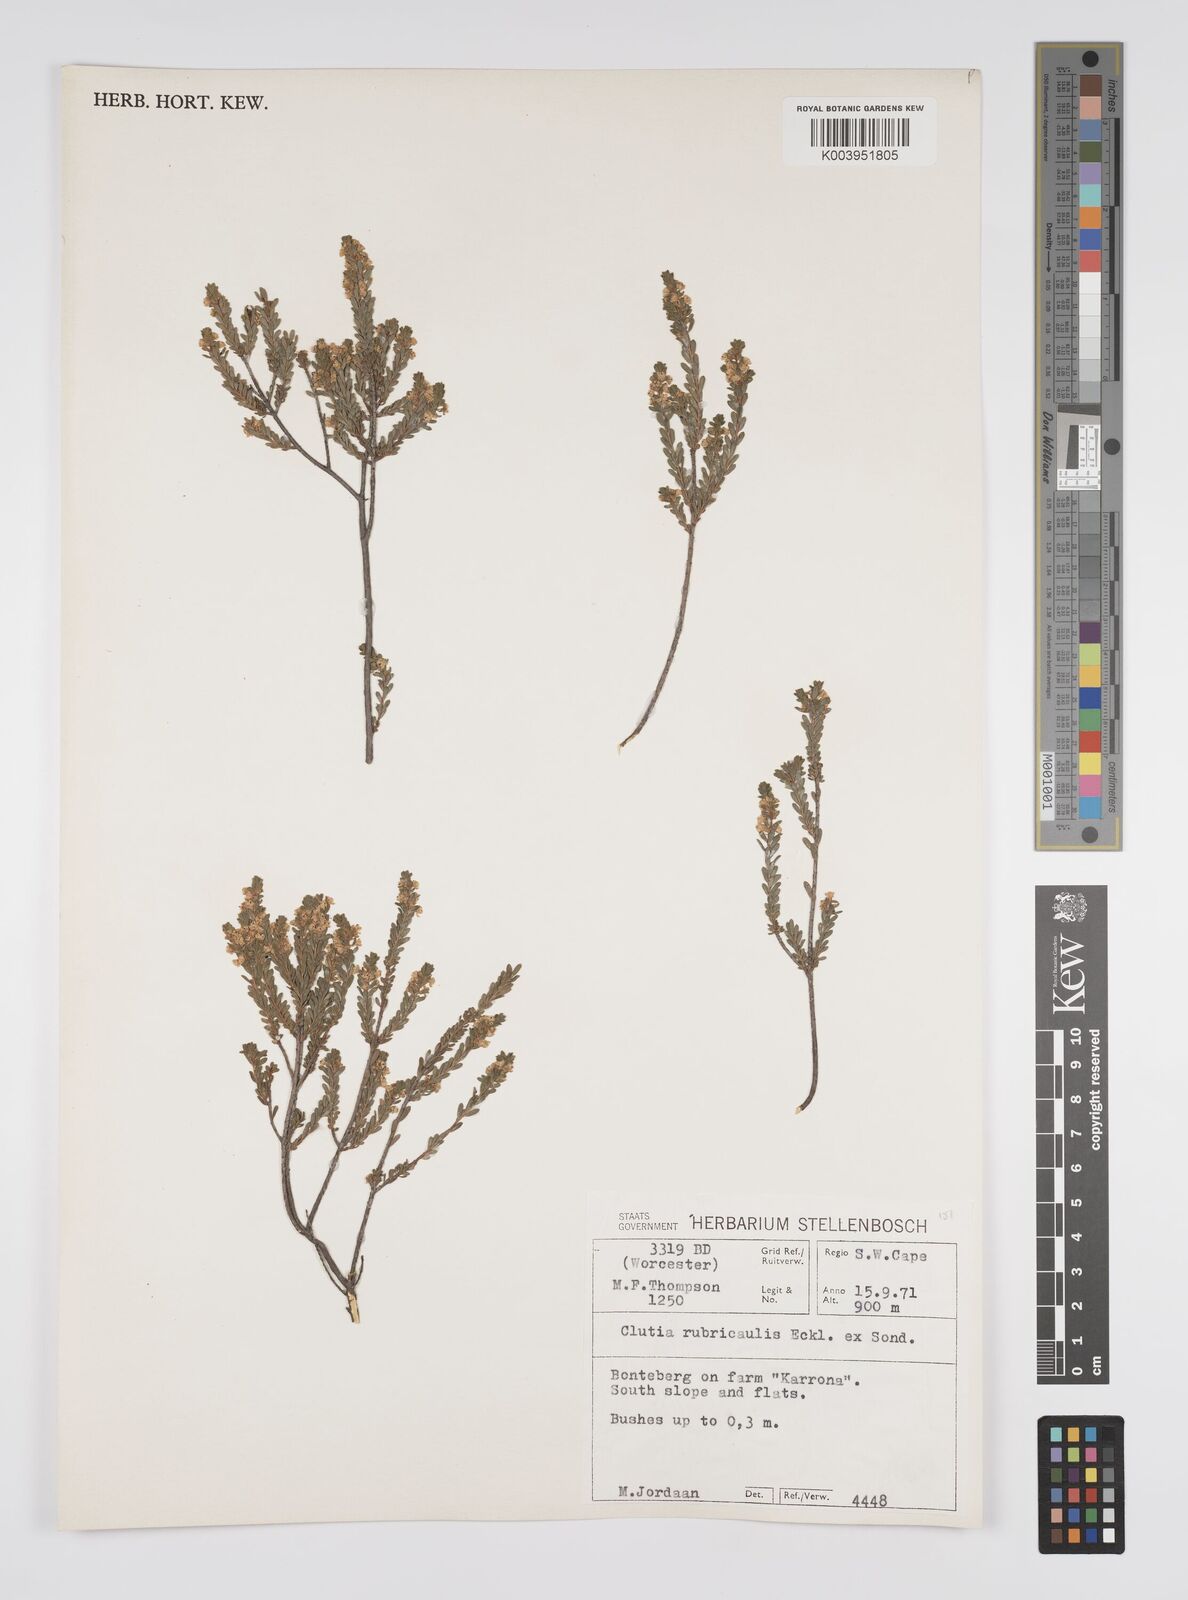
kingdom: Plantae
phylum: Tracheophyta
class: Magnoliopsida
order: Malpighiales
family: Peraceae
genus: Clutia
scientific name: Clutia rubricaulis
